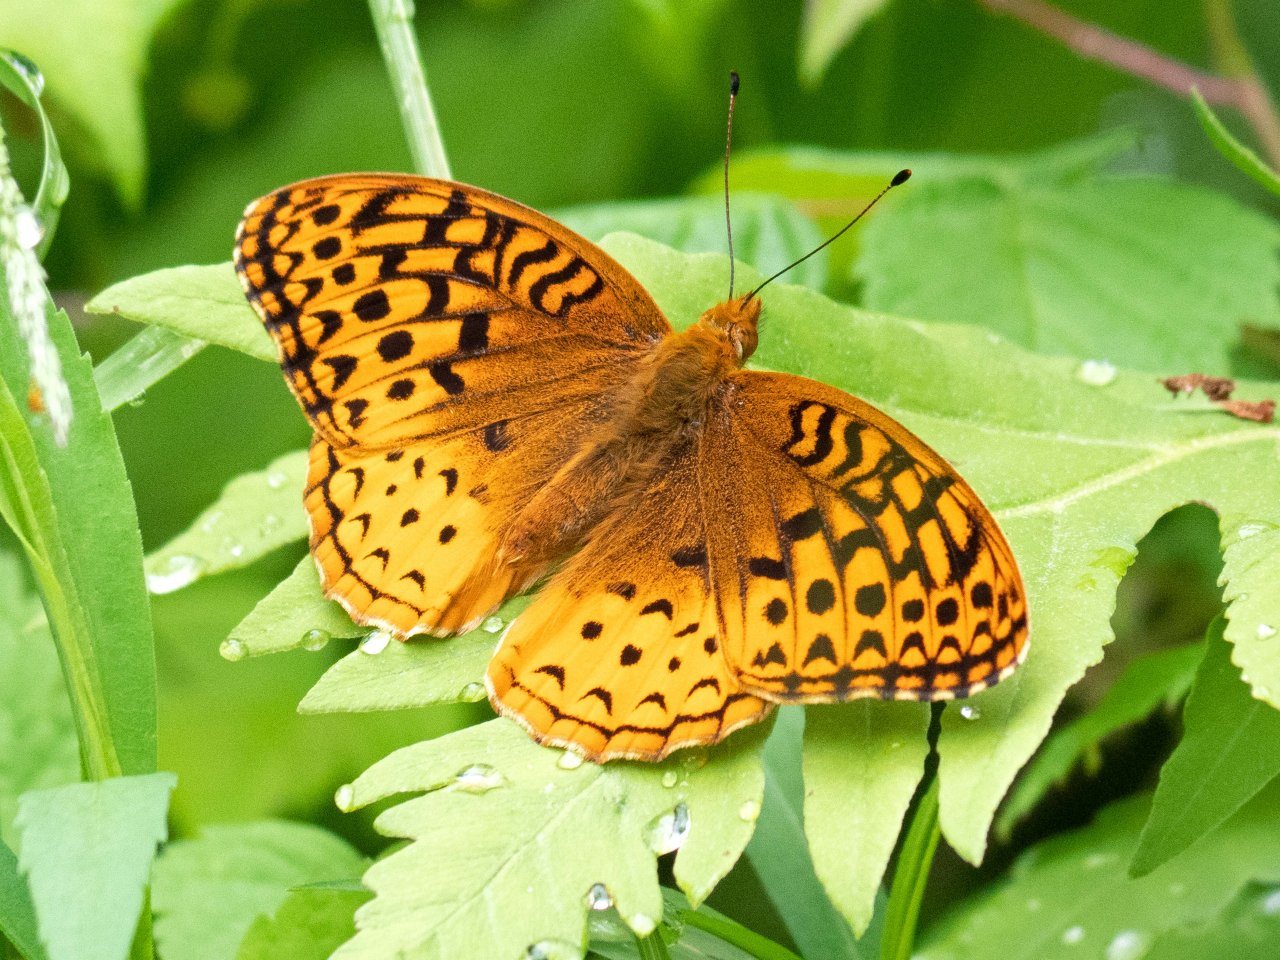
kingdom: Animalia
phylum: Arthropoda
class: Insecta
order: Lepidoptera
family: Nymphalidae
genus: Speyeria
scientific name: Speyeria cybele
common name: Great Spangled Fritillary
